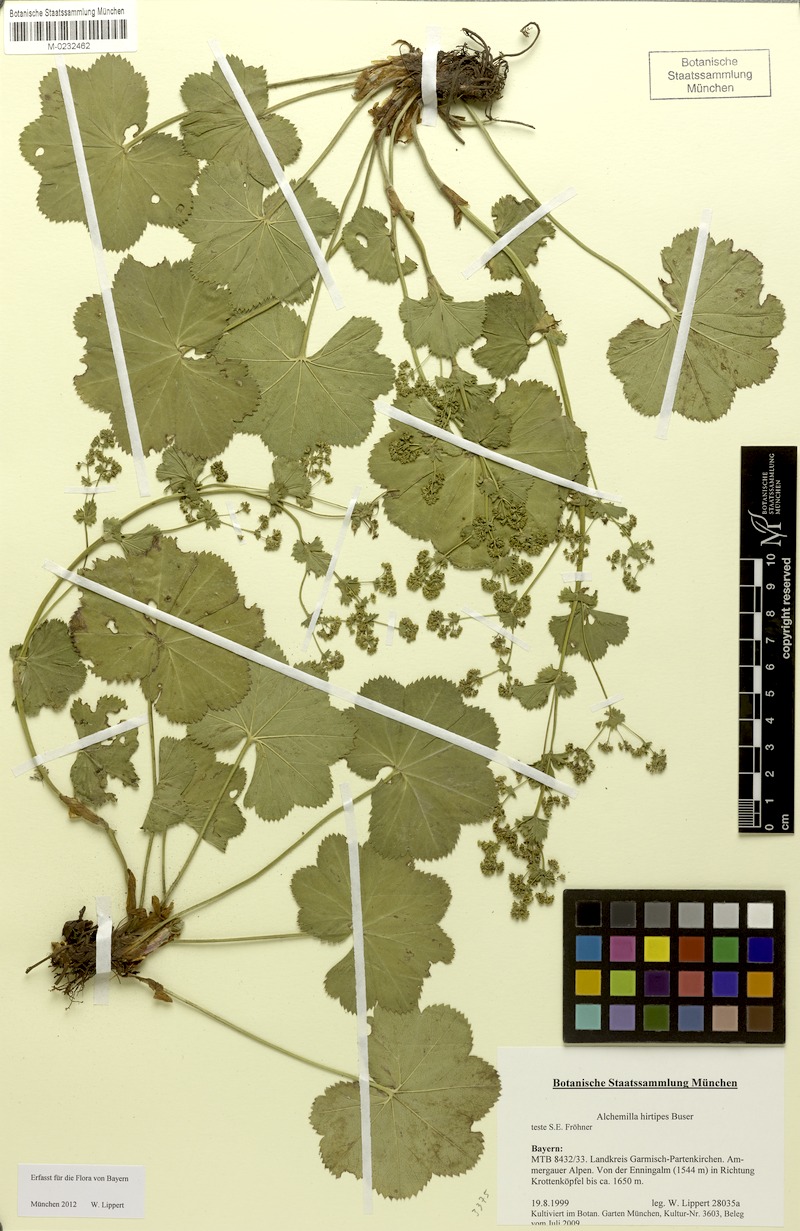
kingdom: Plantae
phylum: Tracheophyta
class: Magnoliopsida
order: Rosales
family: Rosaceae
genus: Alchemilla
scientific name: Alchemilla hirtipes
